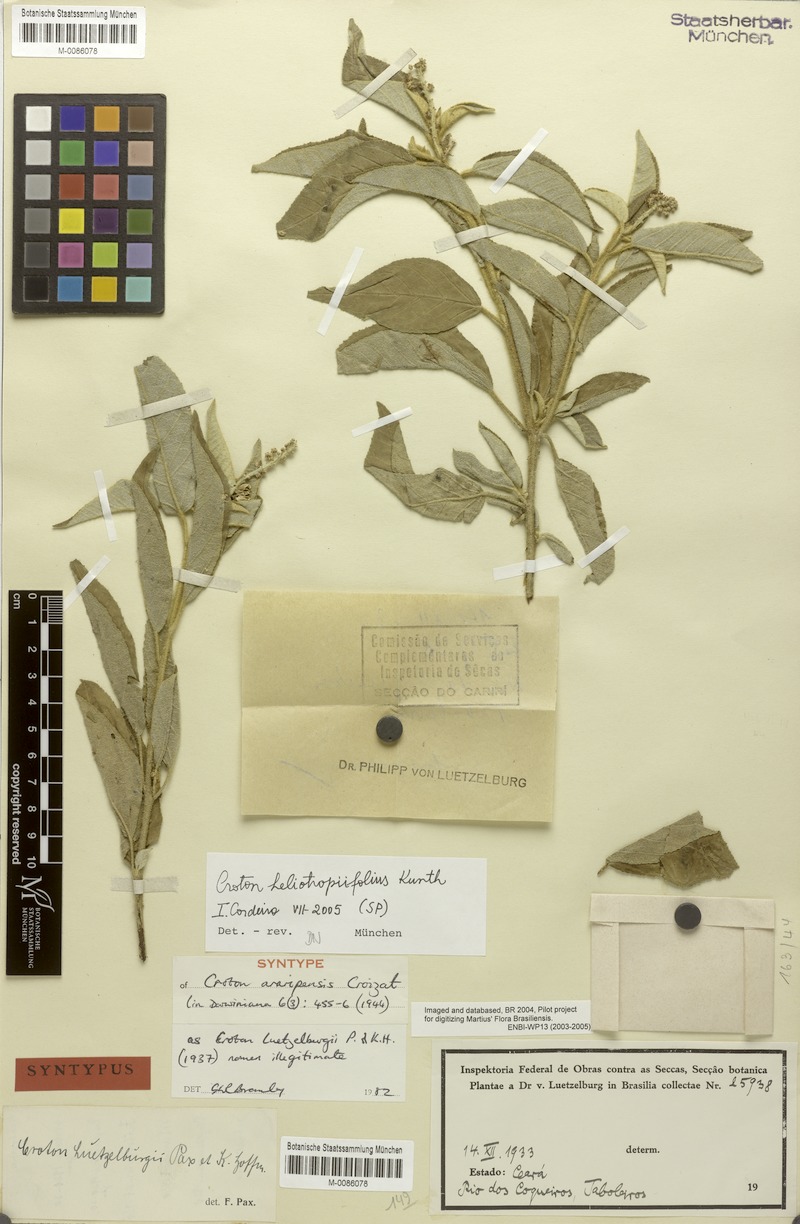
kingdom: Plantae
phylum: Tracheophyta
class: Magnoliopsida
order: Malpighiales
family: Euphorbiaceae
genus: Croton
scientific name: Croton heliotropiifolius
